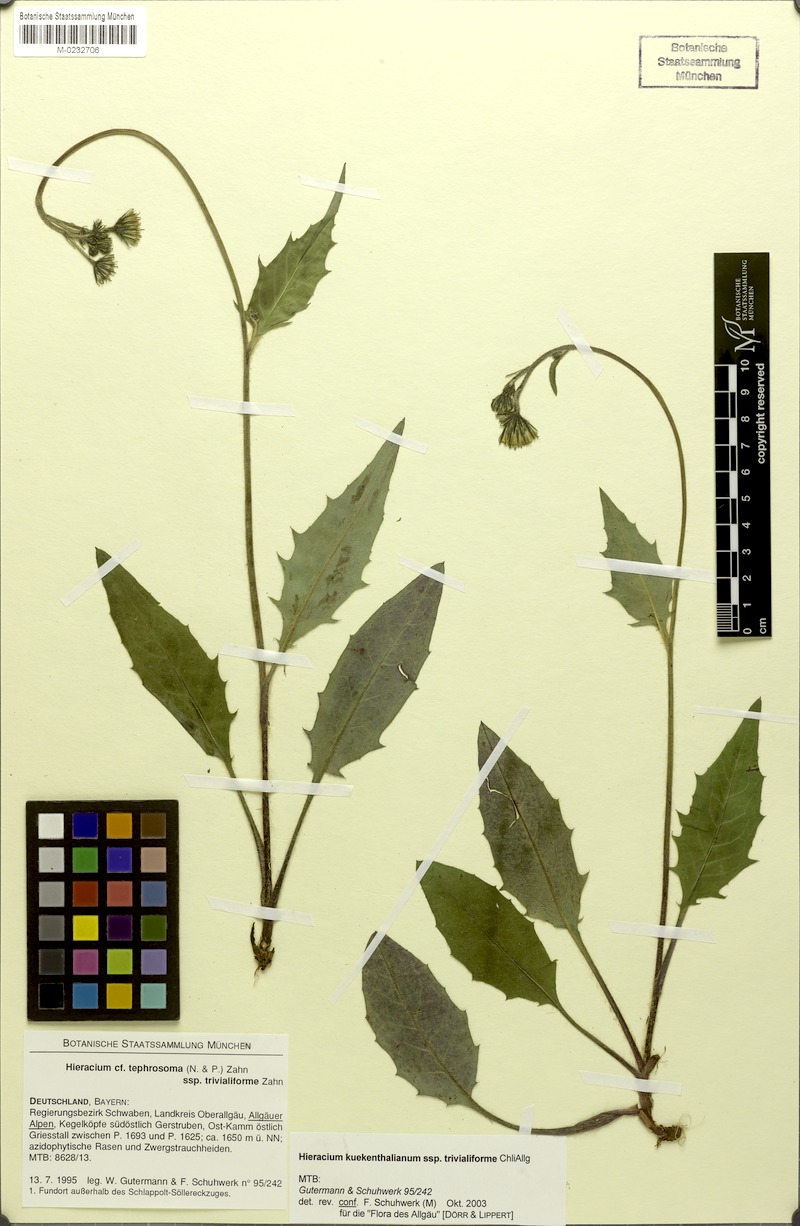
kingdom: Plantae
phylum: Tracheophyta
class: Magnoliopsida
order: Asterales
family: Asteraceae
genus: Hieracium
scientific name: Hieracium kuekenthalianum
